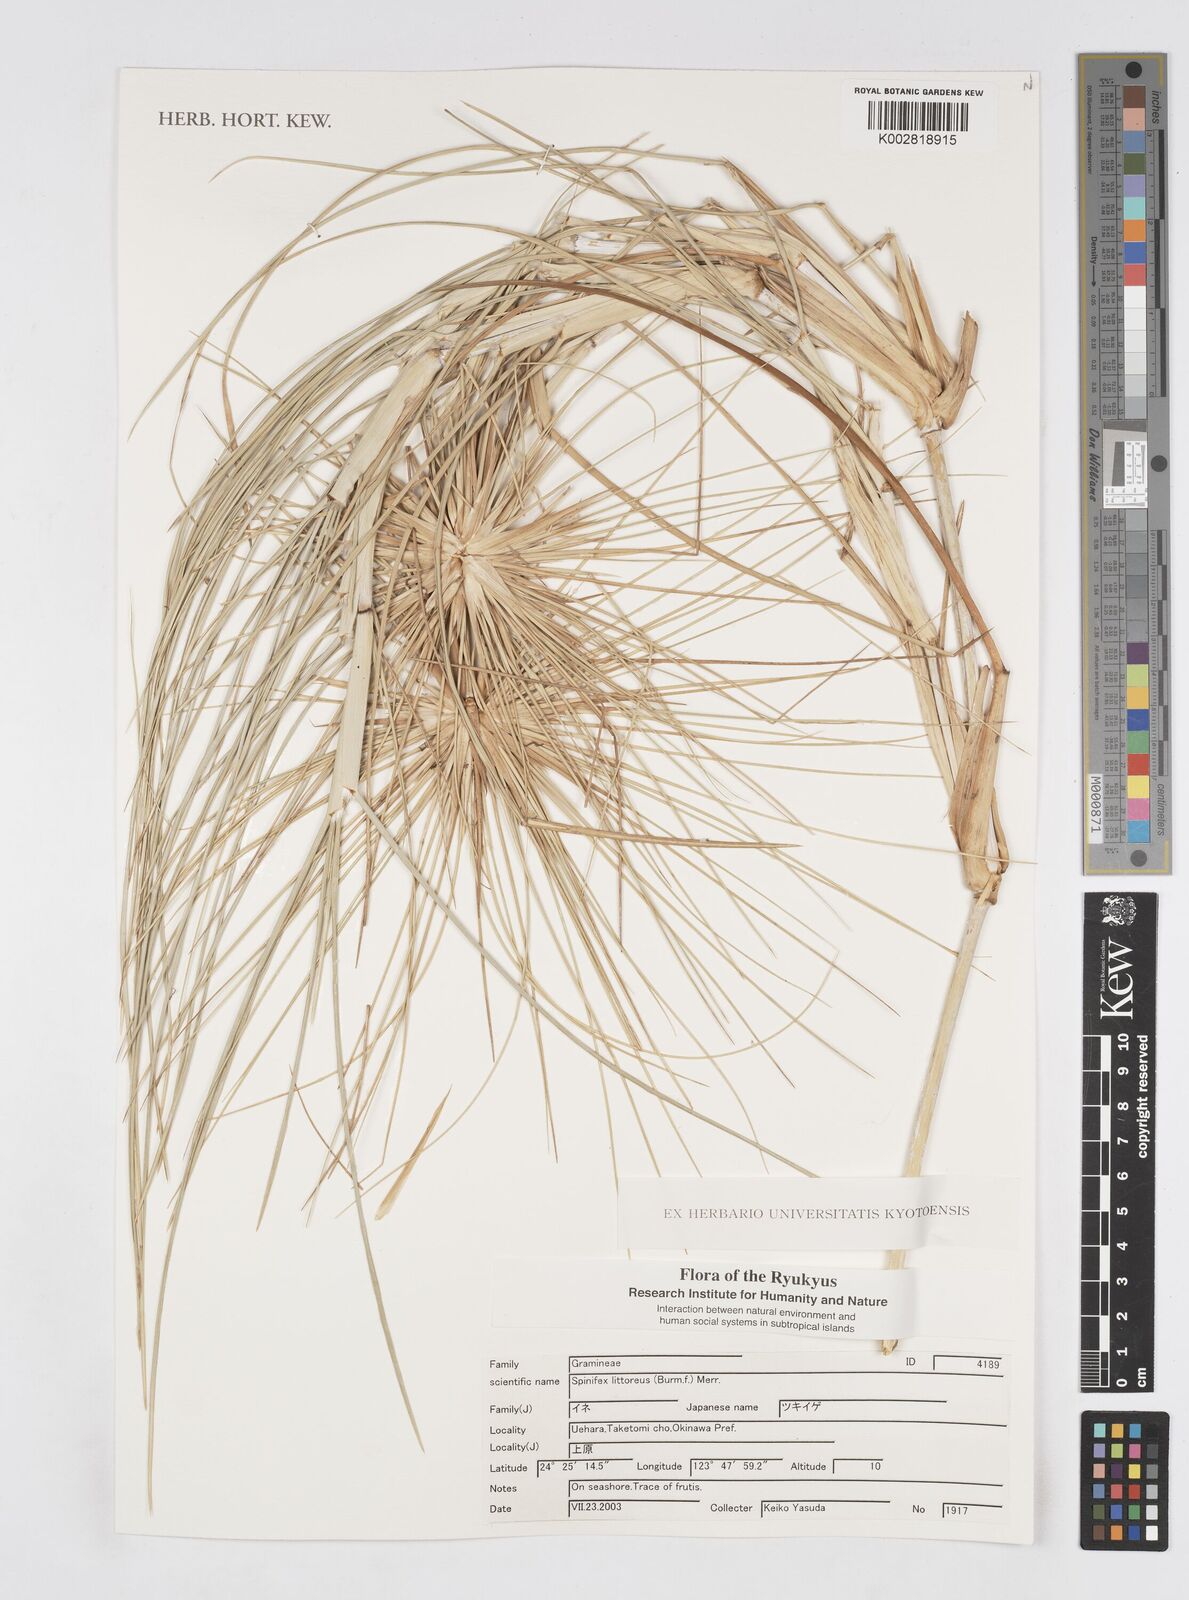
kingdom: Plantae
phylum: Tracheophyta
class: Liliopsida
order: Poales
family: Poaceae
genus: Spinifex
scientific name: Spinifex littoreus
